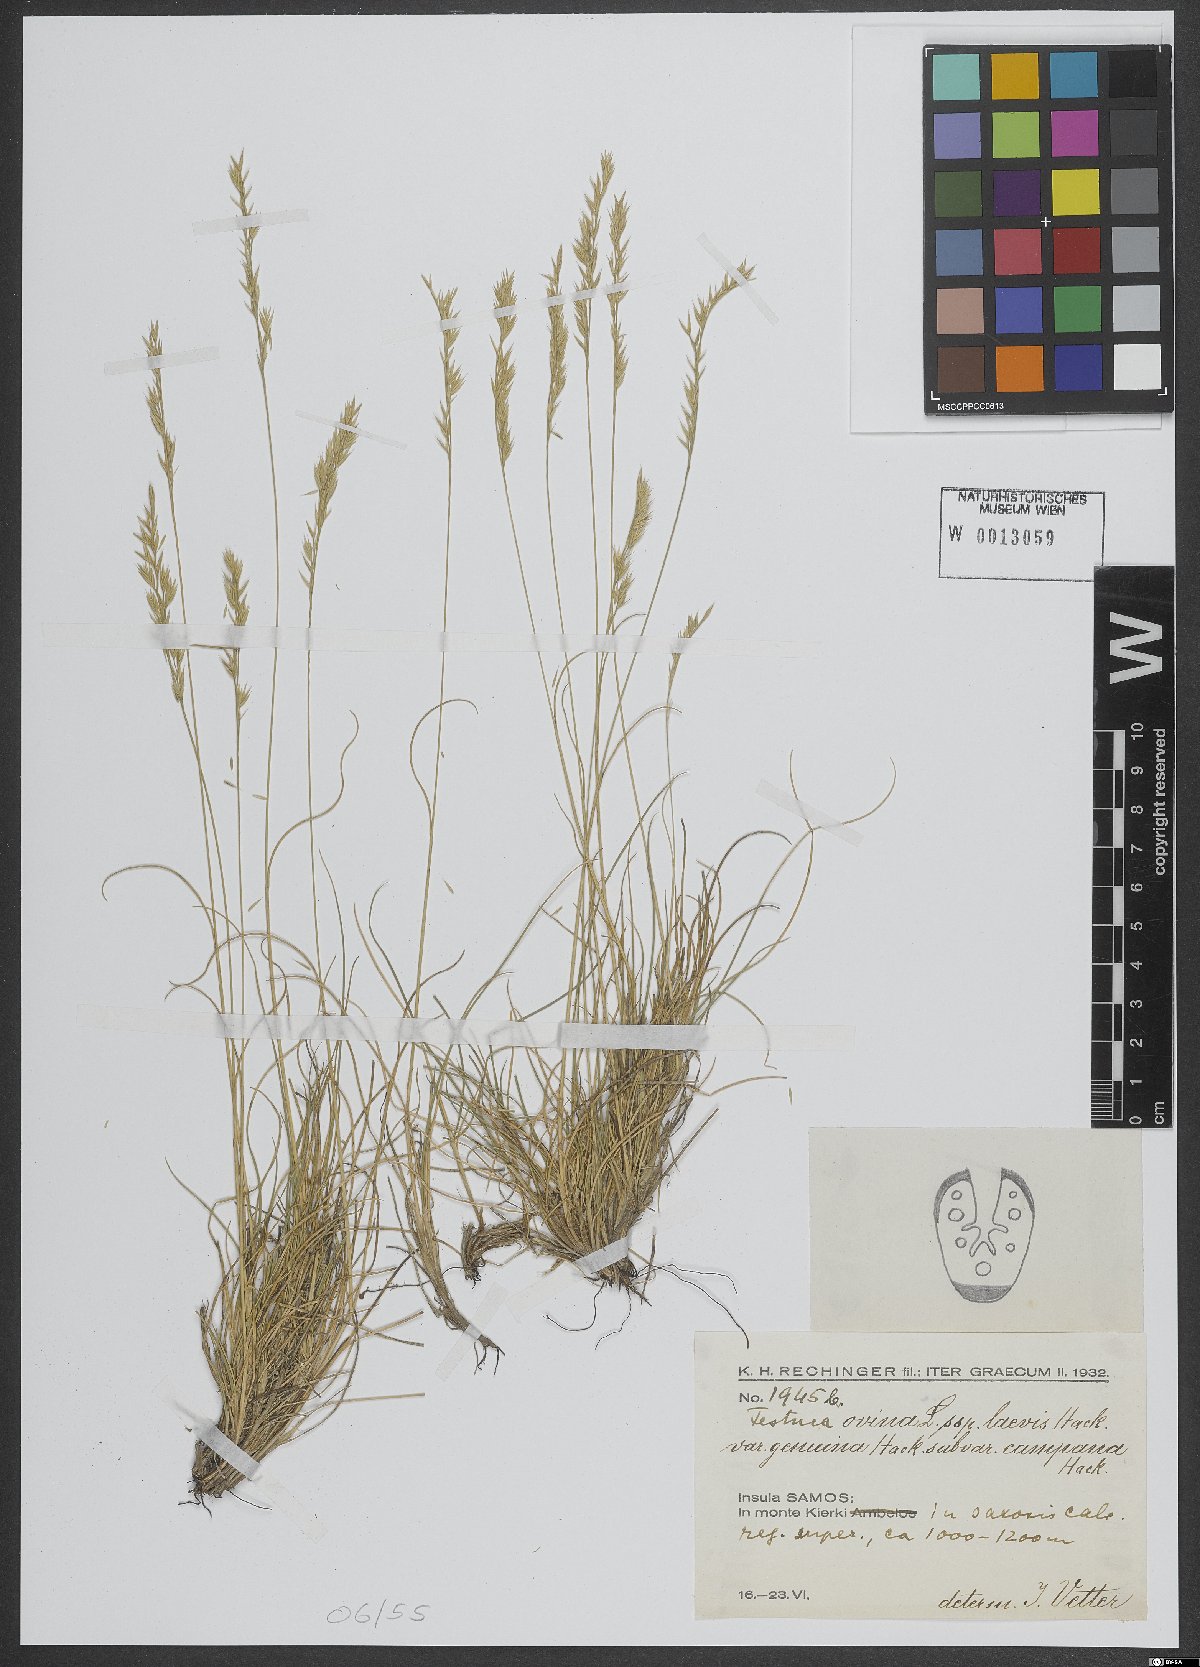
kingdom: Plantae
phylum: Tracheophyta
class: Liliopsida
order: Poales
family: Poaceae
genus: Festuca
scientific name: Festuca circummediterranea
